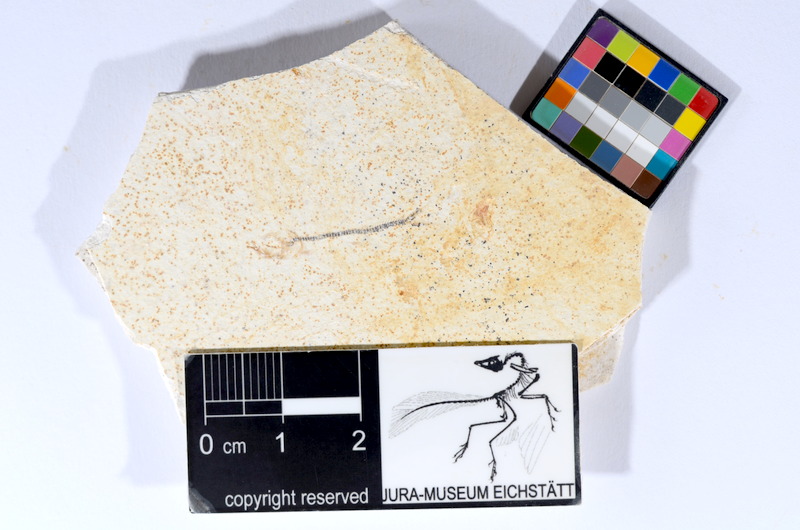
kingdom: Animalia
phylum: Chordata
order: Salmoniformes
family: Orthogonikleithridae
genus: Orthogonikleithrus
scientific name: Orthogonikleithrus hoelli
